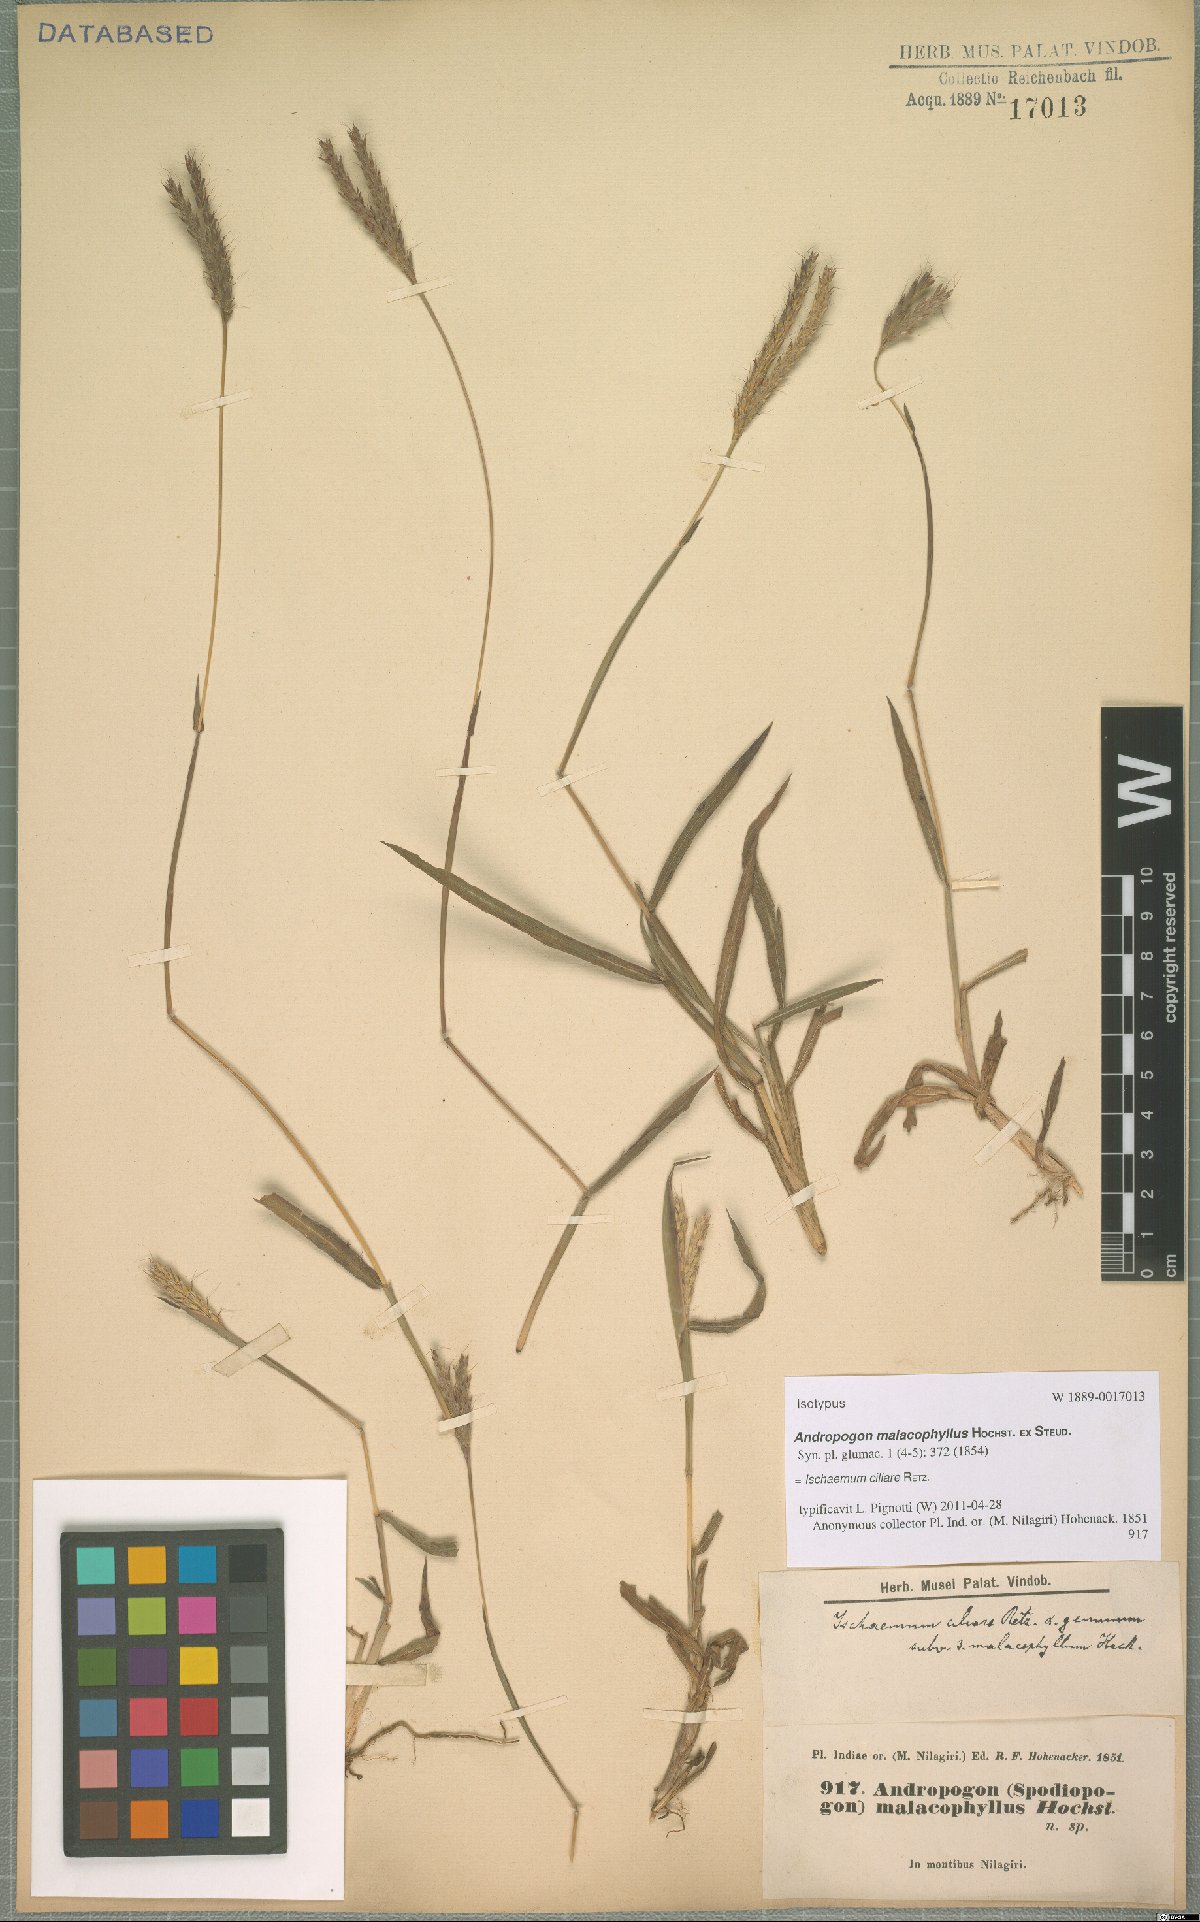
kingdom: Plantae
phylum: Tracheophyta
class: Liliopsida
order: Poales
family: Poaceae
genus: Ischaemum
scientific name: Ischaemum ciliare
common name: Grass
